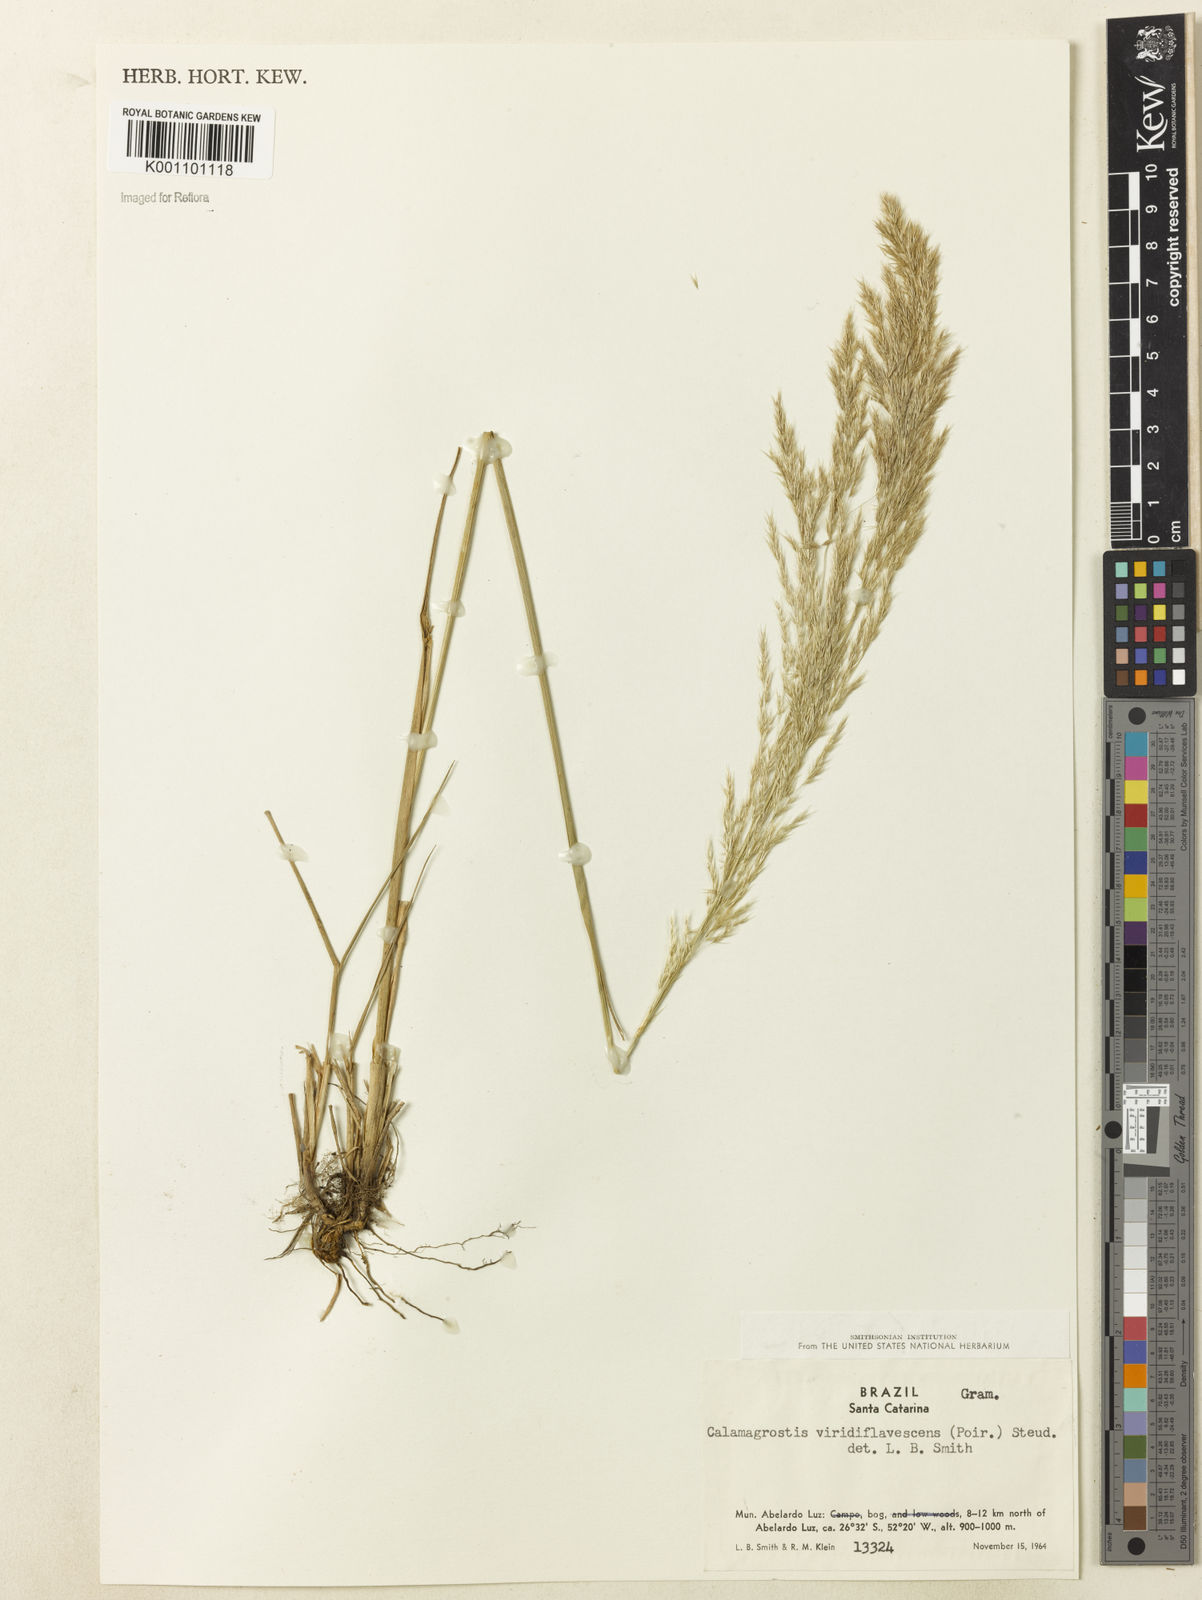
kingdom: Plantae
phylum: Tracheophyta
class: Liliopsida
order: Poales
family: Poaceae
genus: Cinnagrostis
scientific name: Cinnagrostis viridiflavescens
